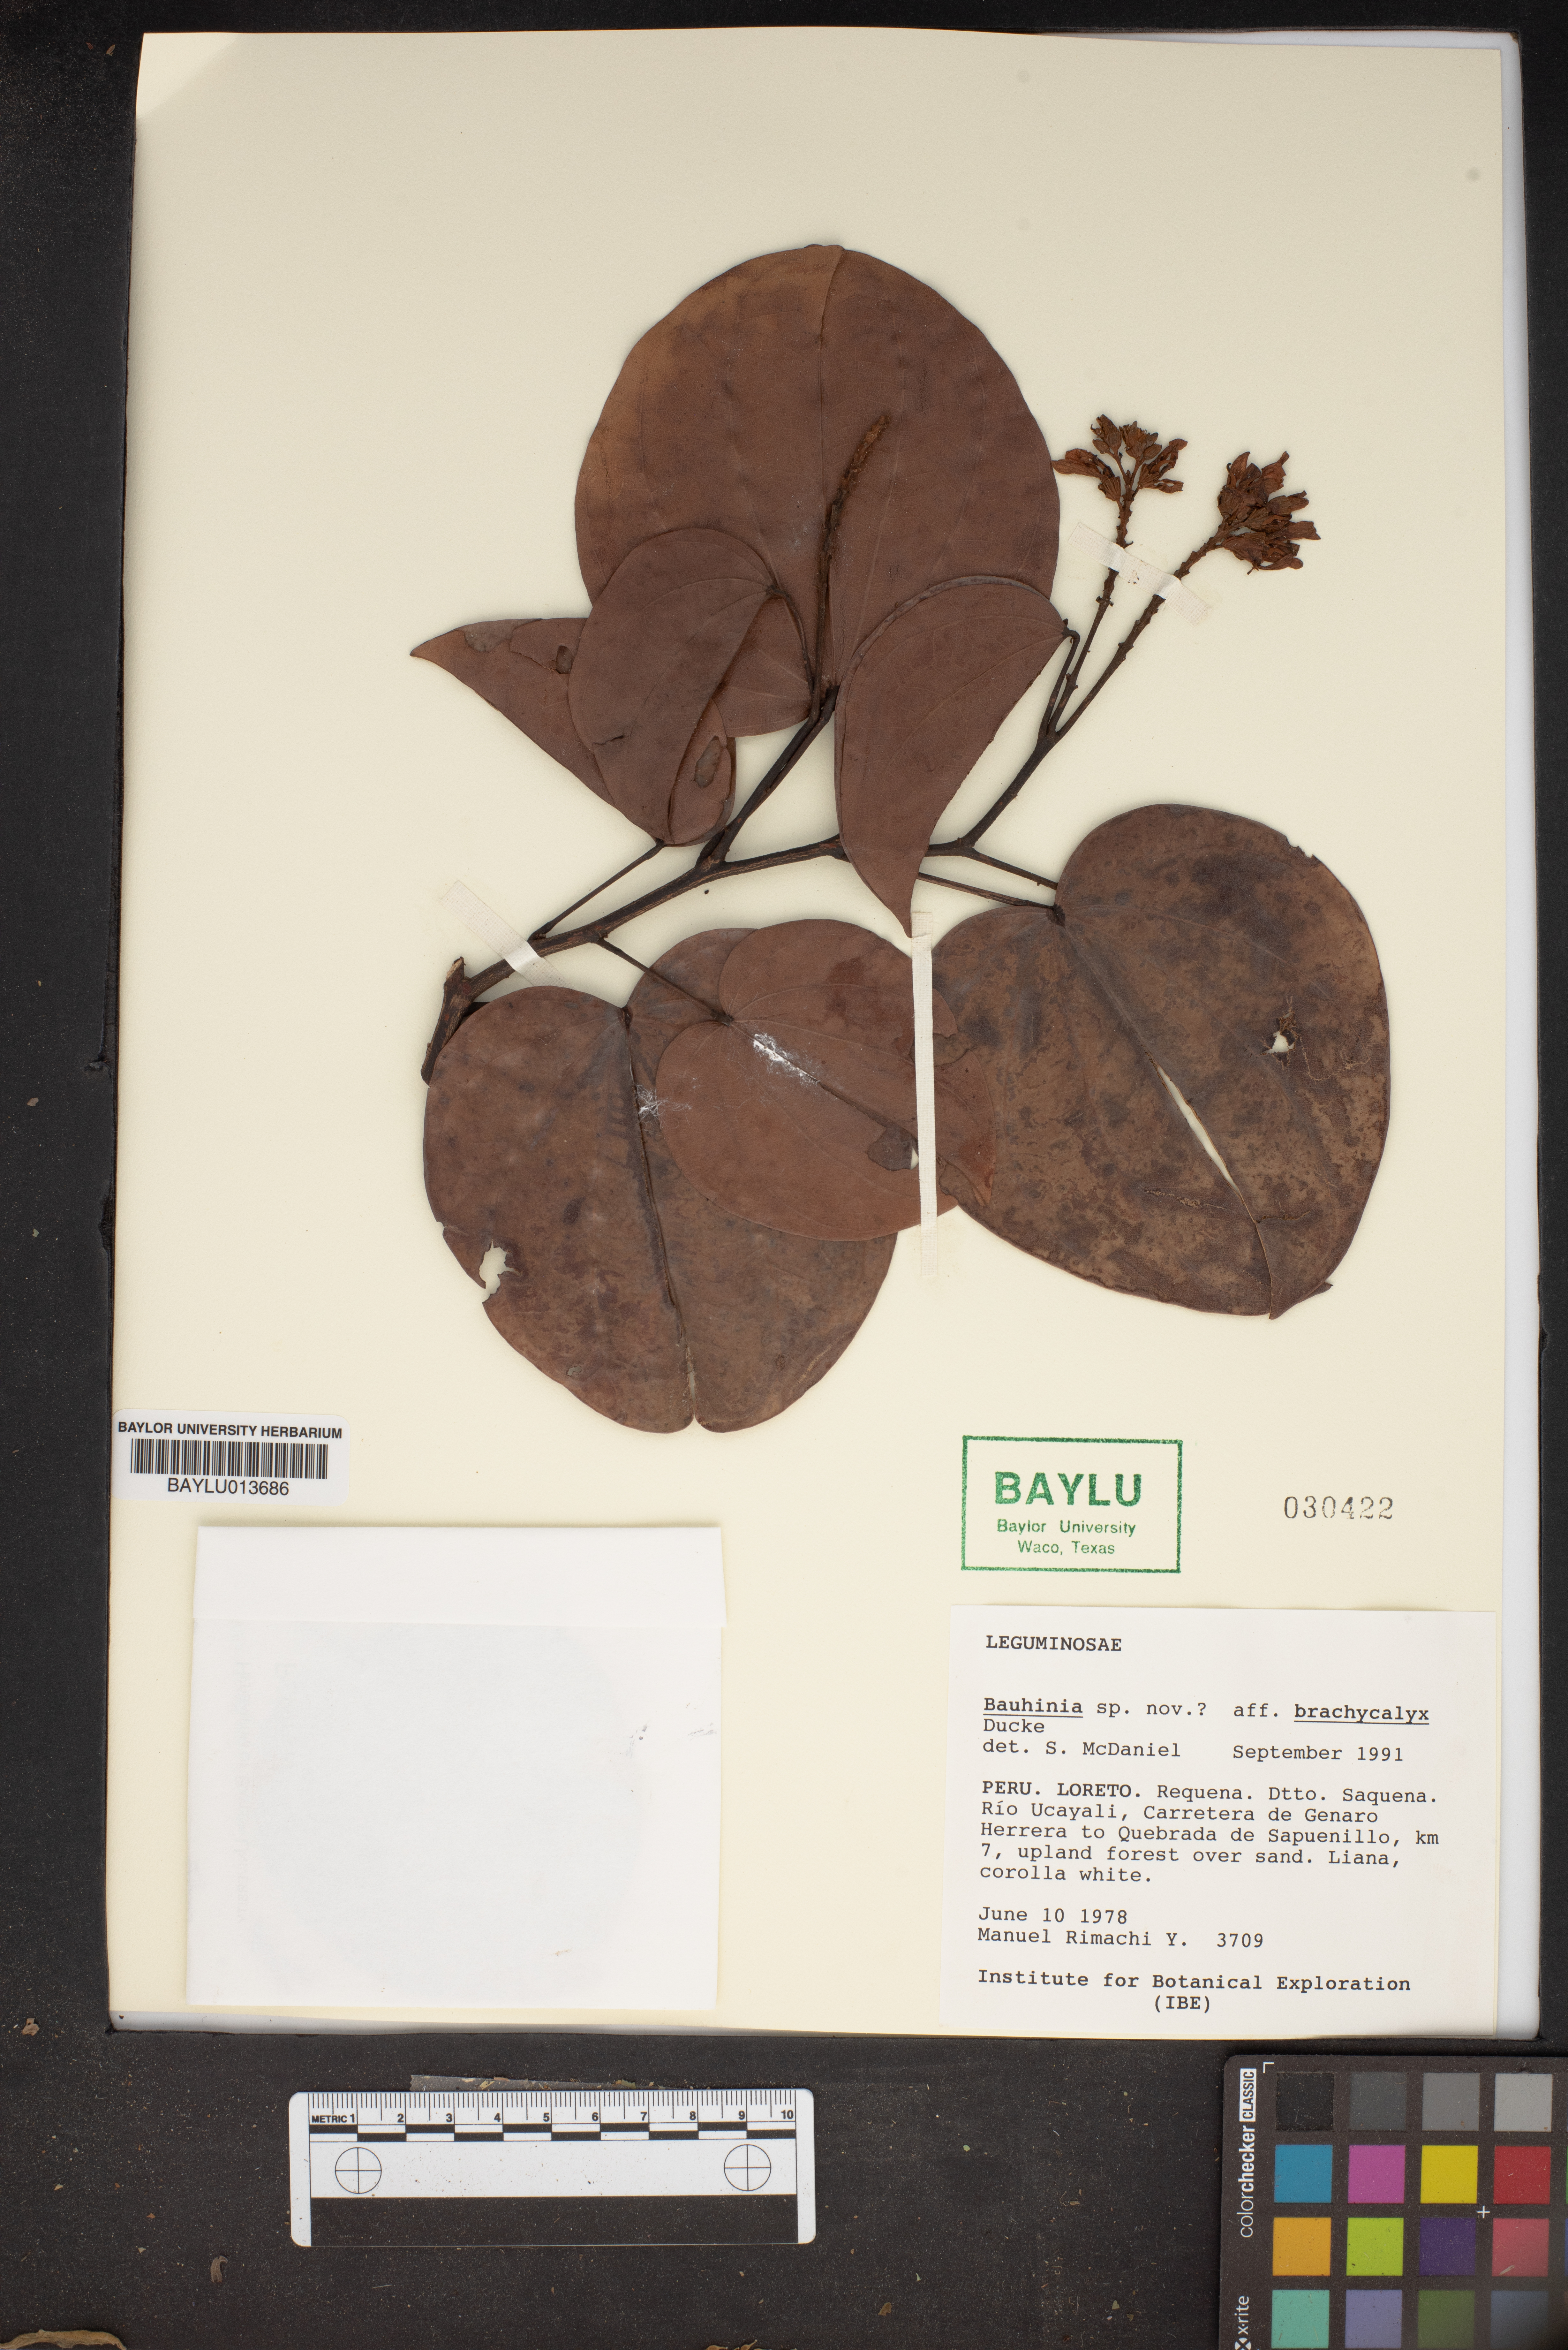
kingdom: Plantae
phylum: Tracheophyta
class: Magnoliopsida
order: Fabales
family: Fabaceae
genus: Bauhinia
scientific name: Bauhinia brachycalyx
